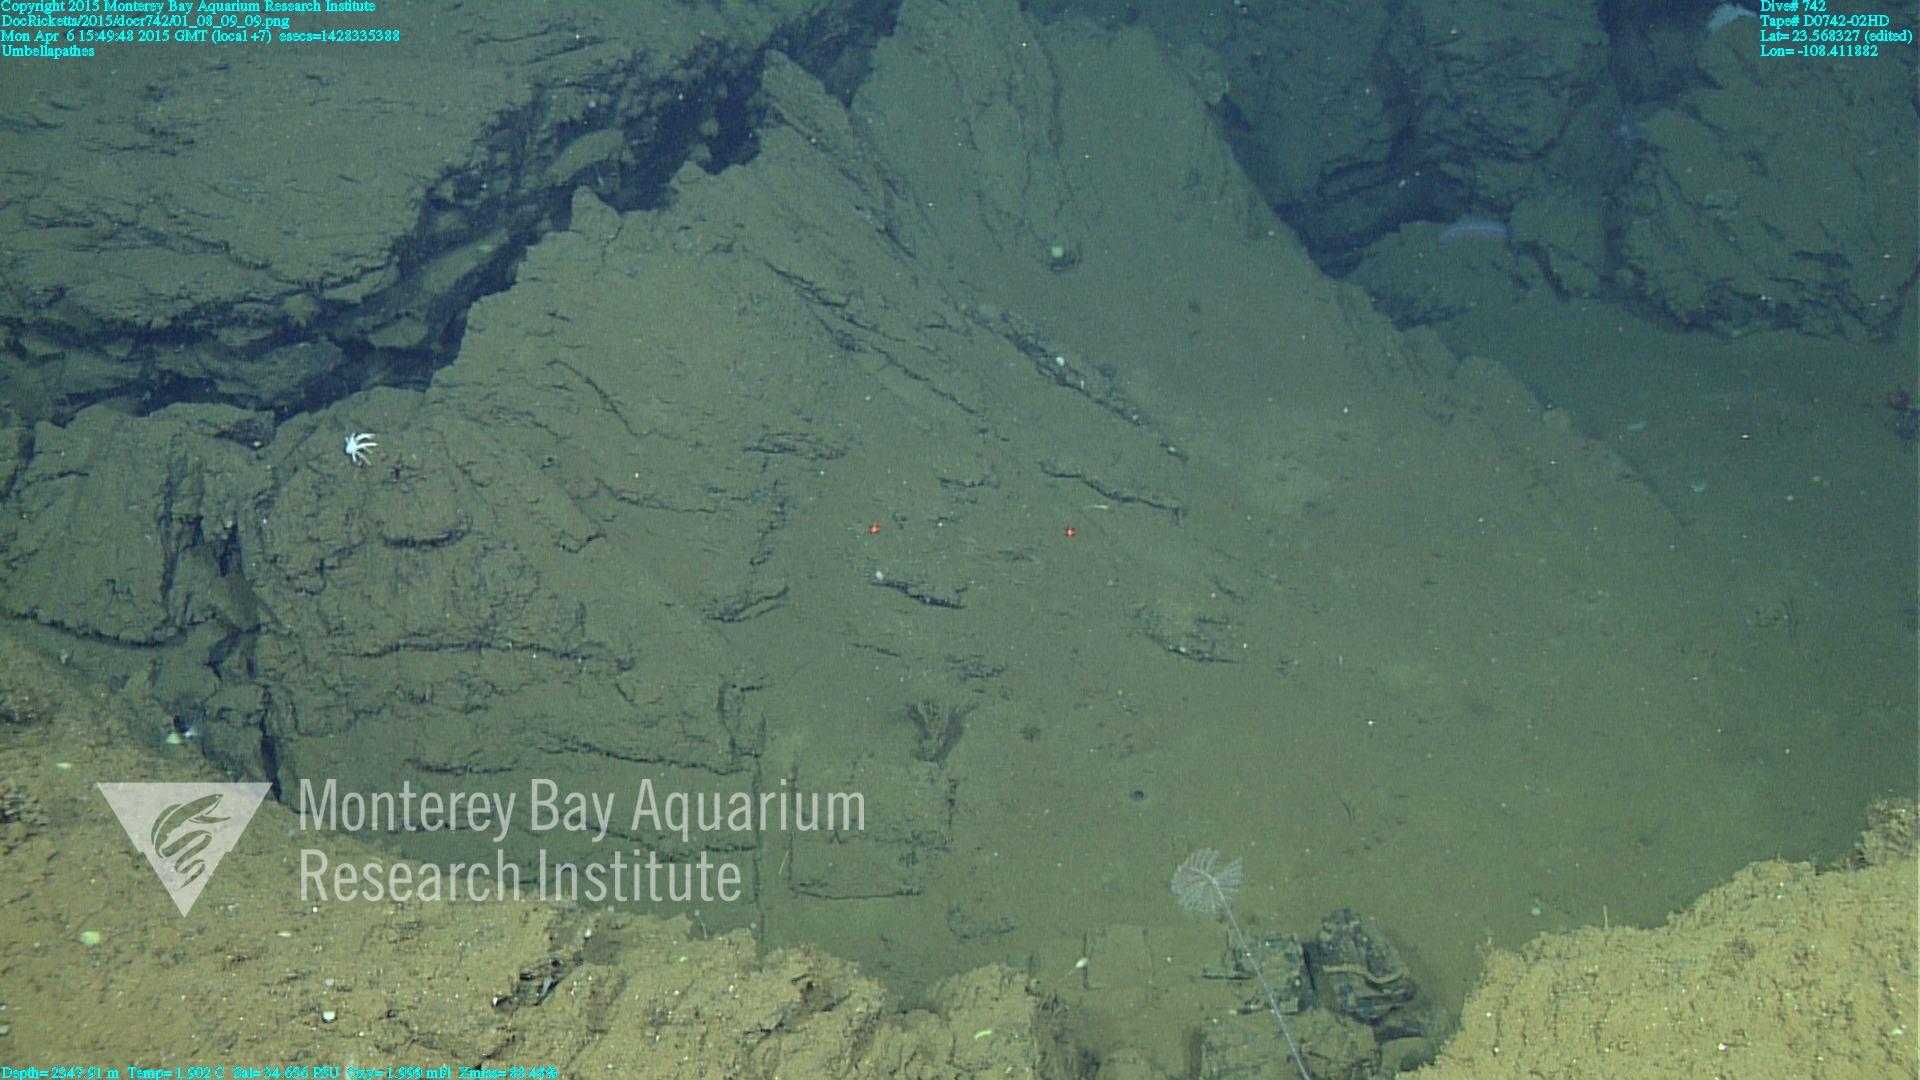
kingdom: Animalia
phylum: Cnidaria
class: Anthozoa
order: Antipatharia
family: Schizopathidae
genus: Umbellapathes
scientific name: Umbellapathes
